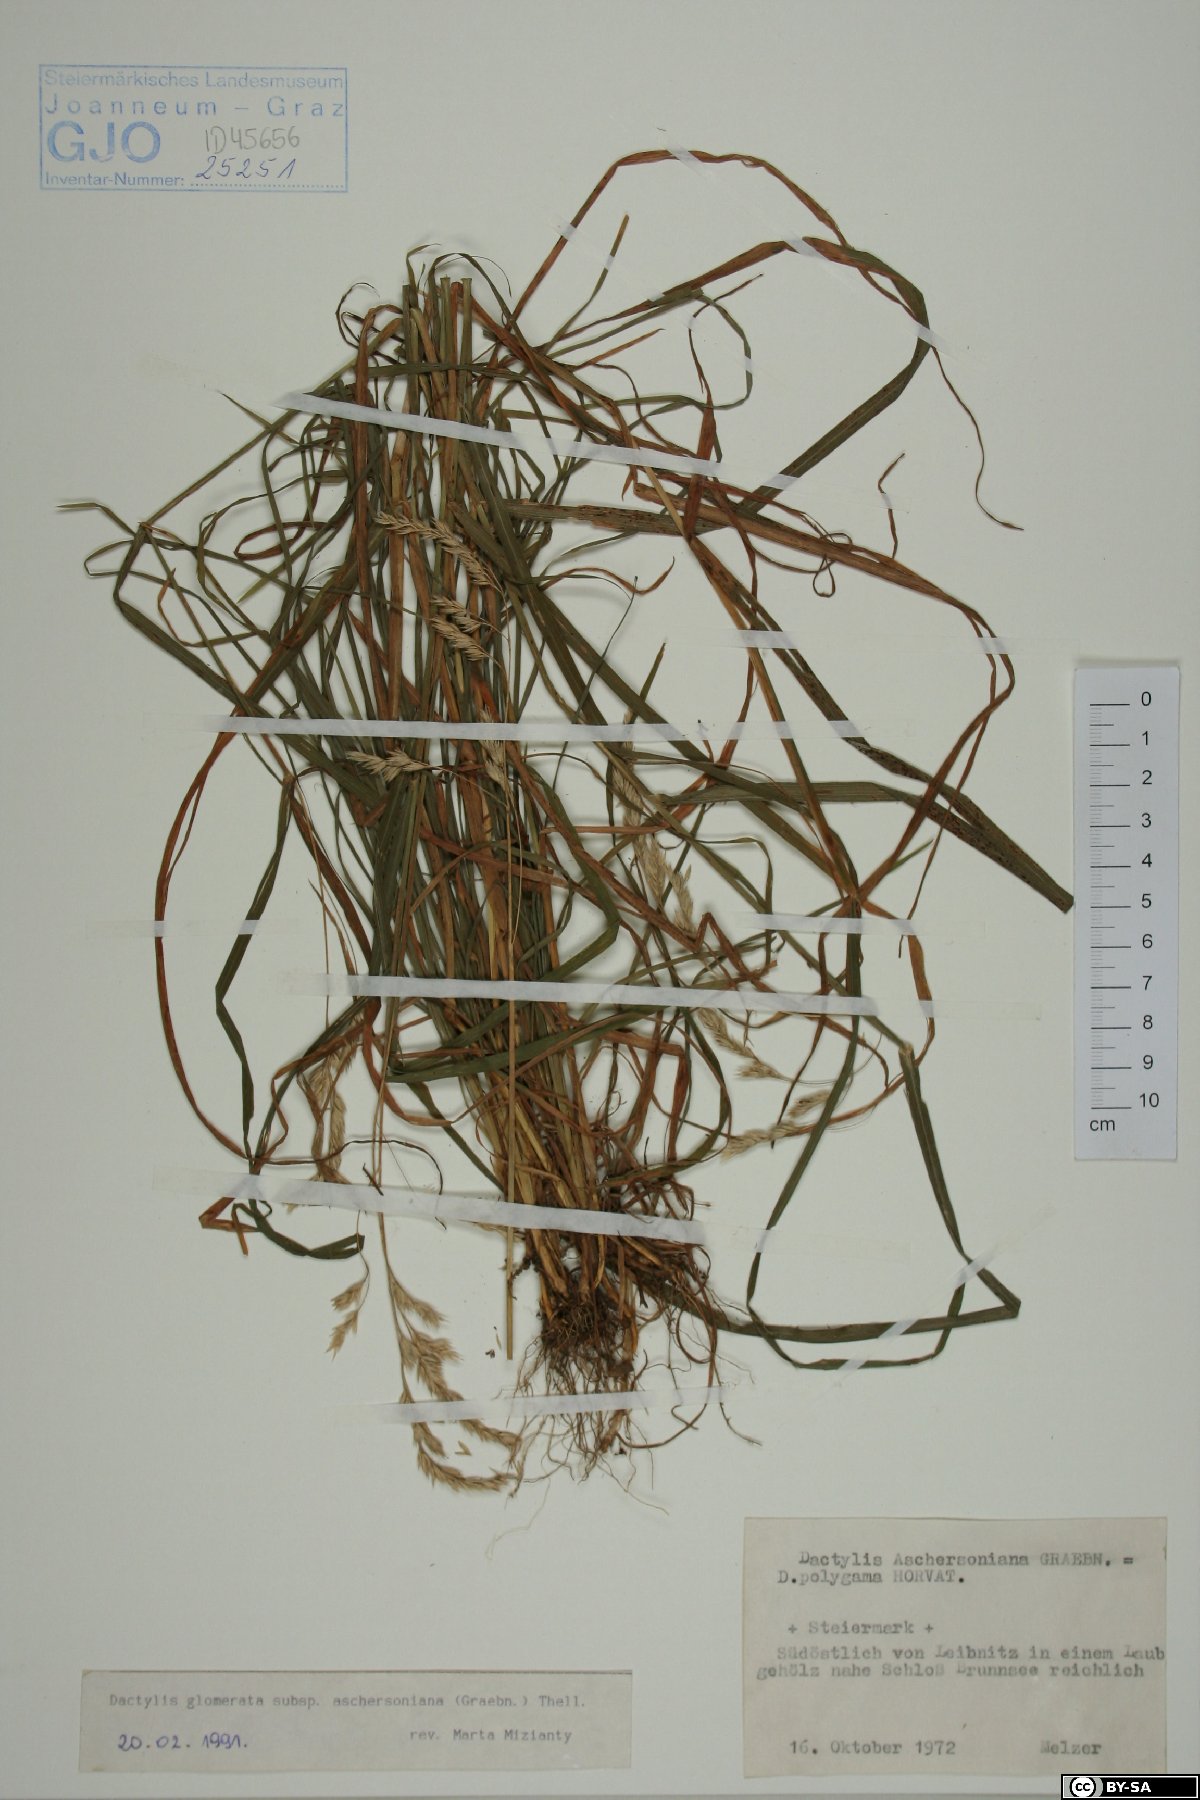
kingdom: Plantae
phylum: Tracheophyta
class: Liliopsida
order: Poales
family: Poaceae
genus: Dactylis
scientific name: Dactylis glomerata
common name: Orchardgrass
